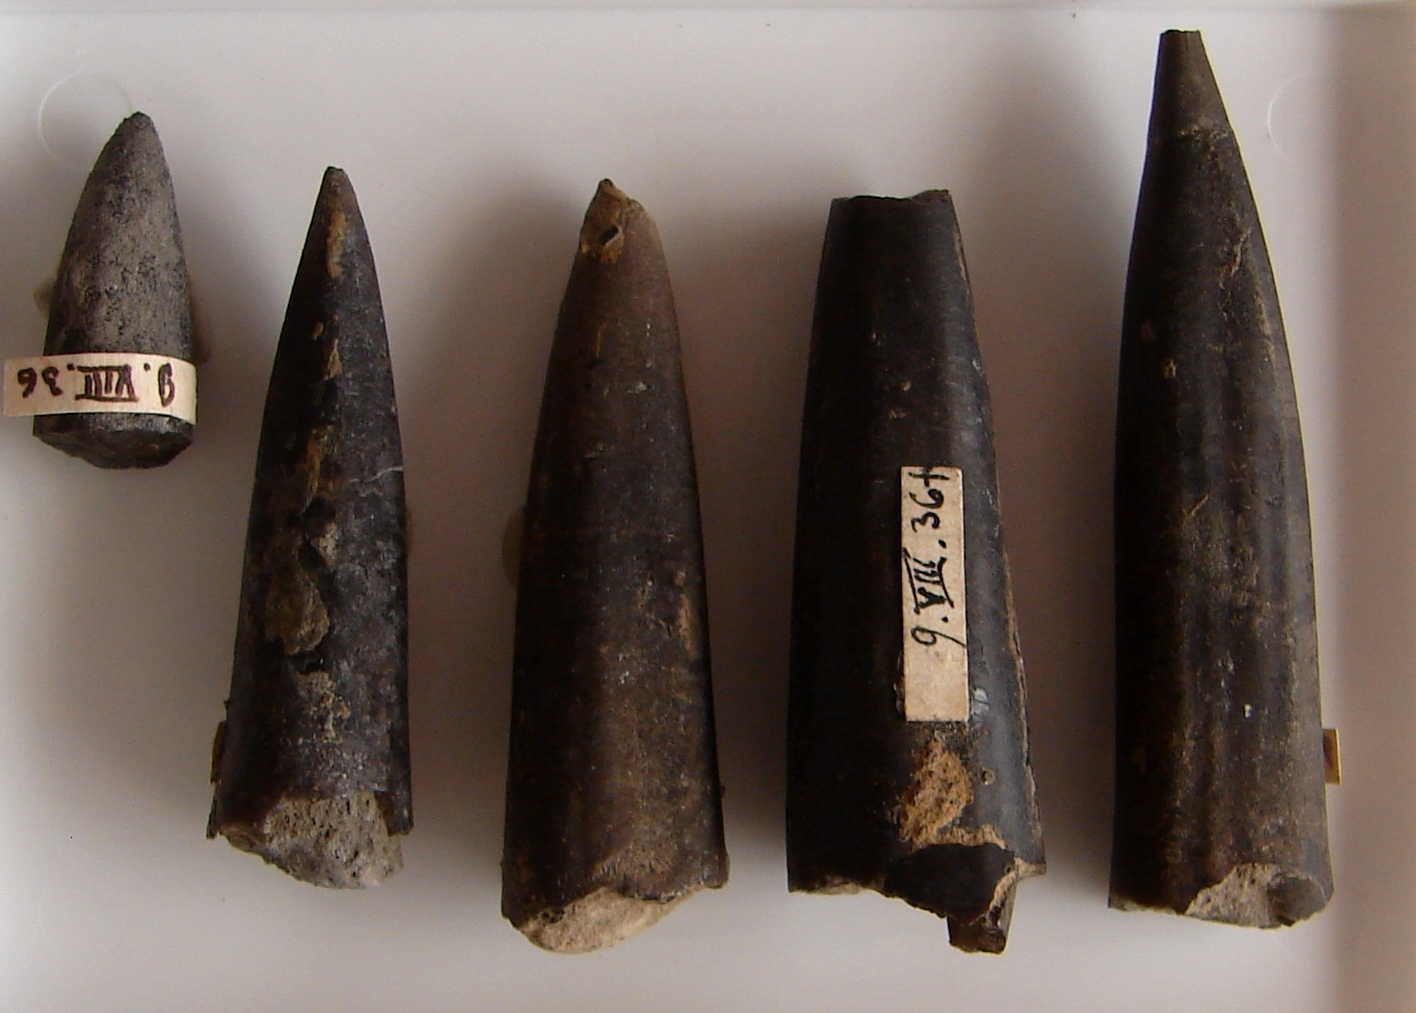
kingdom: Animalia
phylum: Mollusca
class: Cephalopoda
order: Belemnitida
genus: Nannobelus
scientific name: Nannobelus
